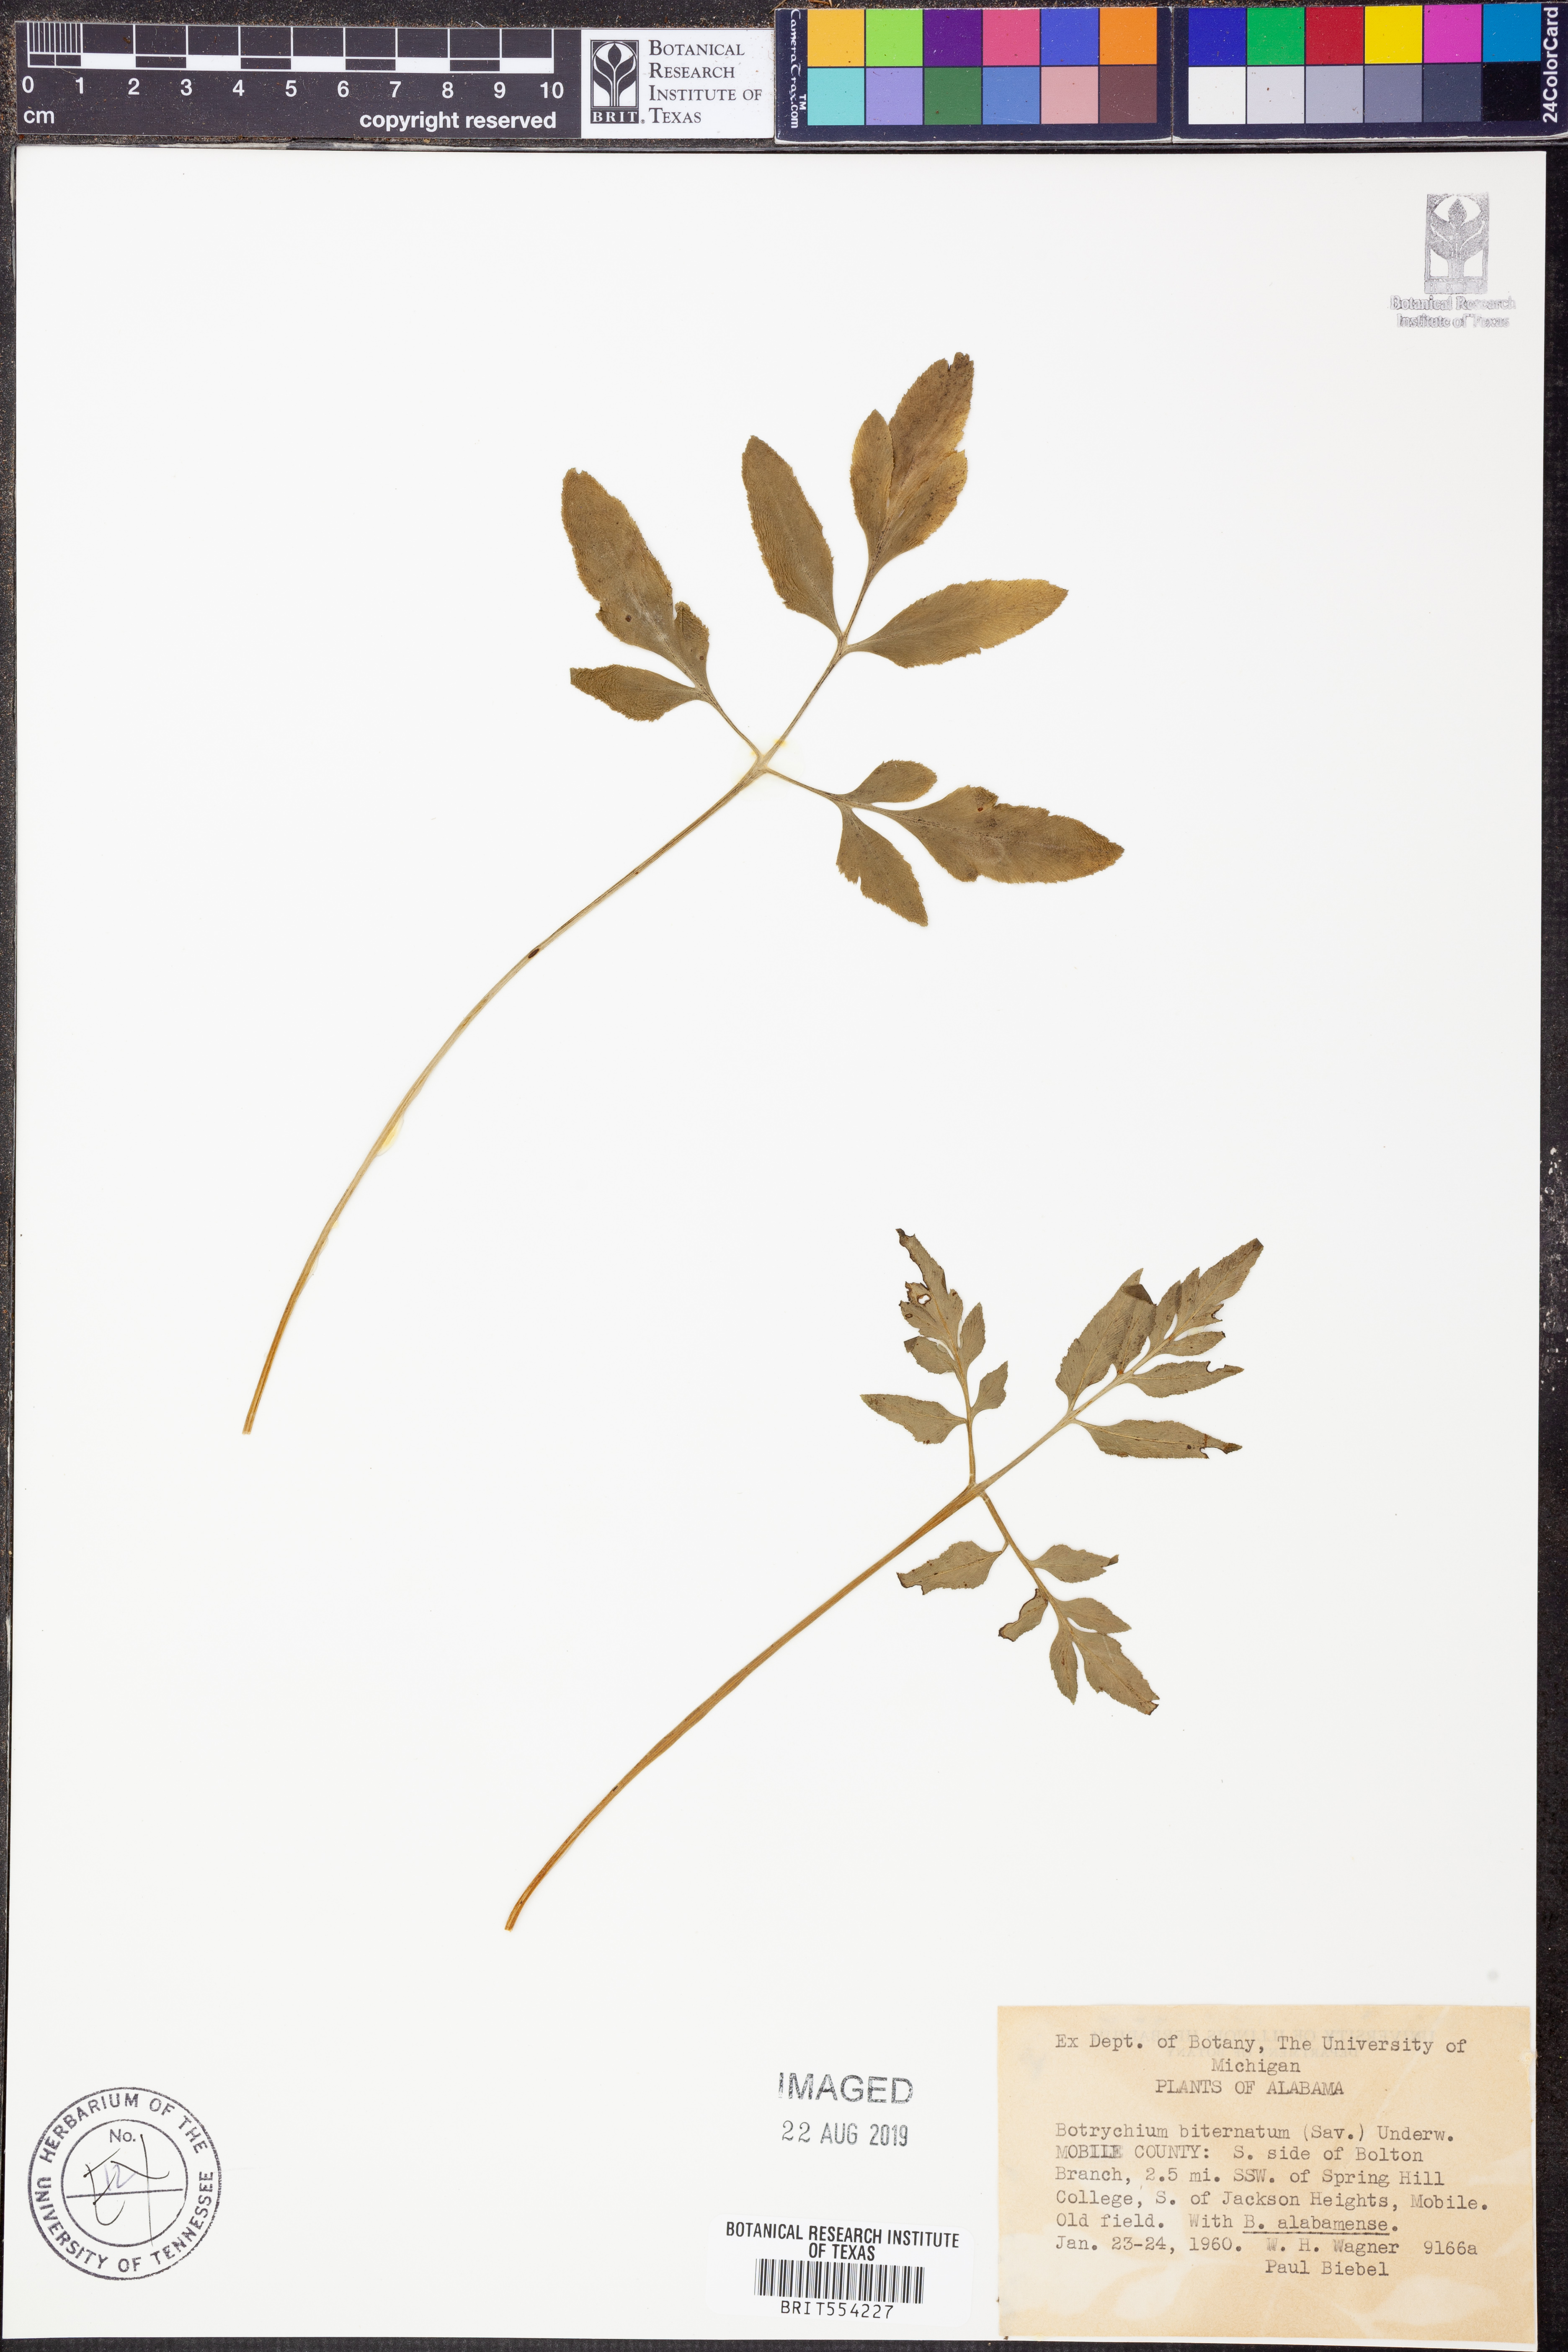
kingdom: Plantae
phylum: Tracheophyta
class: Polypodiopsida
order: Ophioglossales
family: Ophioglossaceae
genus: Sceptridium
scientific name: Sceptridium biternatum
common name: Sparse-lobed grapefern
